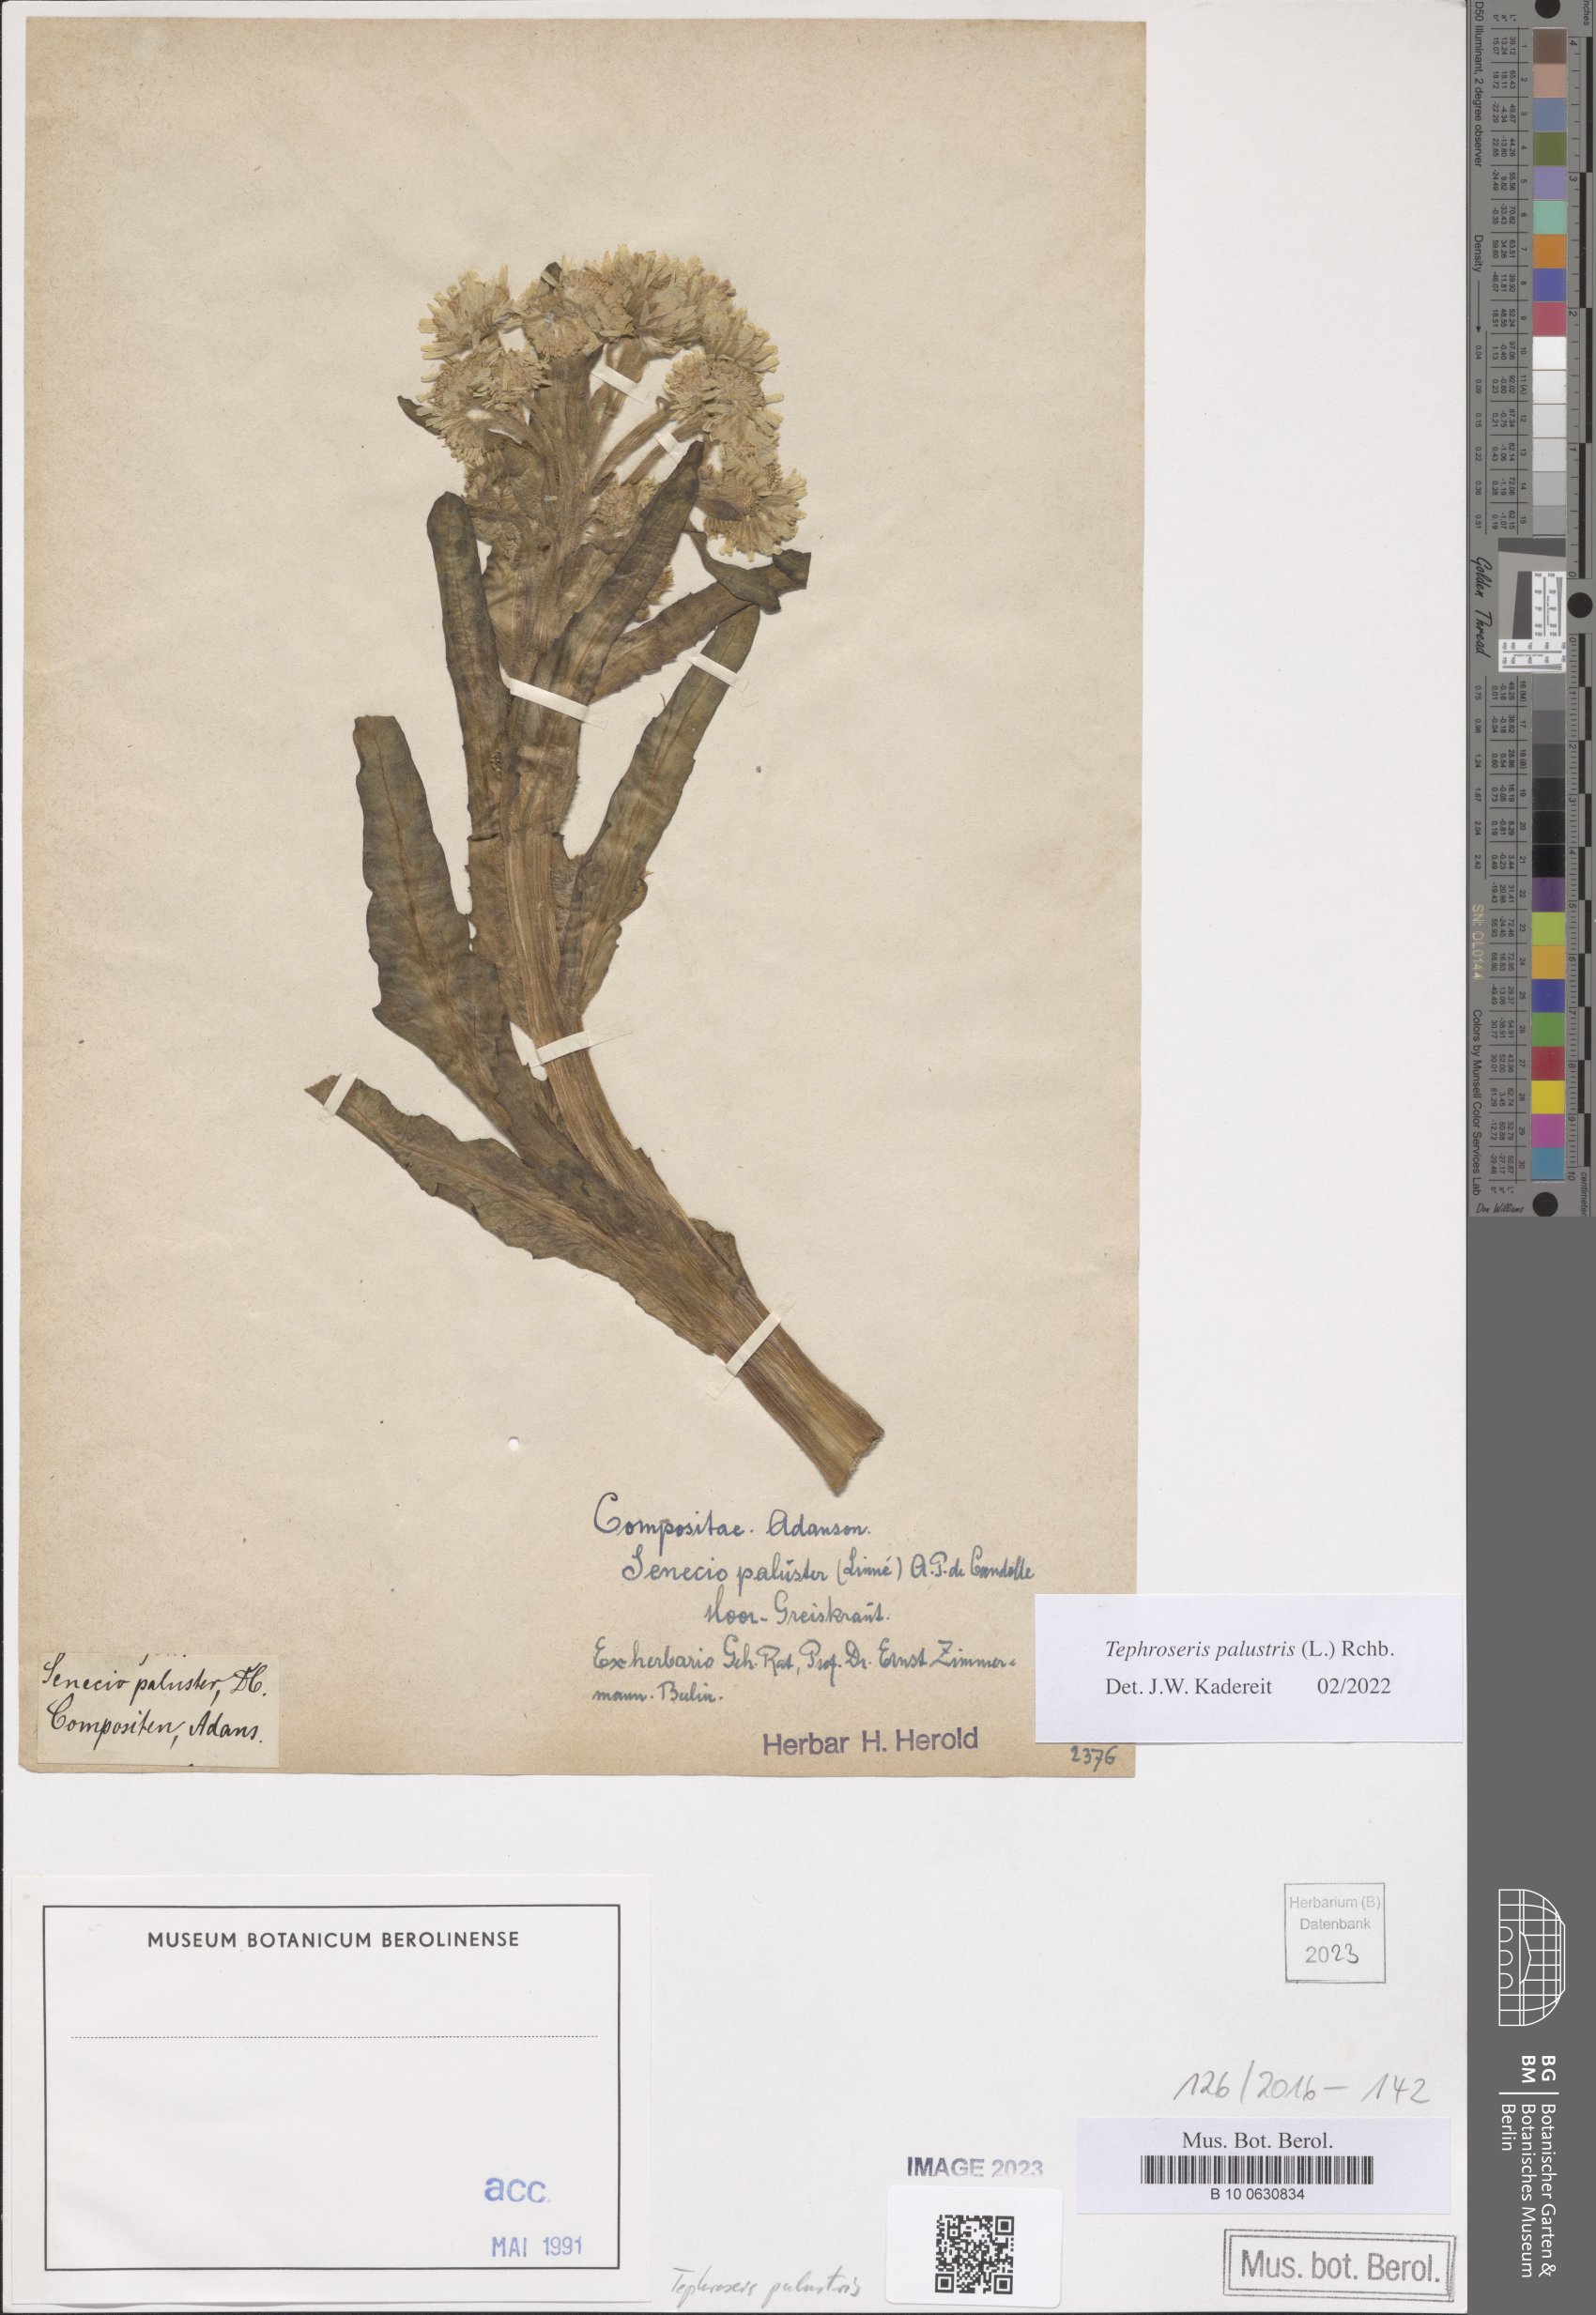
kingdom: Plantae
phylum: Tracheophyta
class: Magnoliopsida
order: Asterales
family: Asteraceae
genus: Tephroseris
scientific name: Tephroseris palustris
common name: Marsh fleawort
